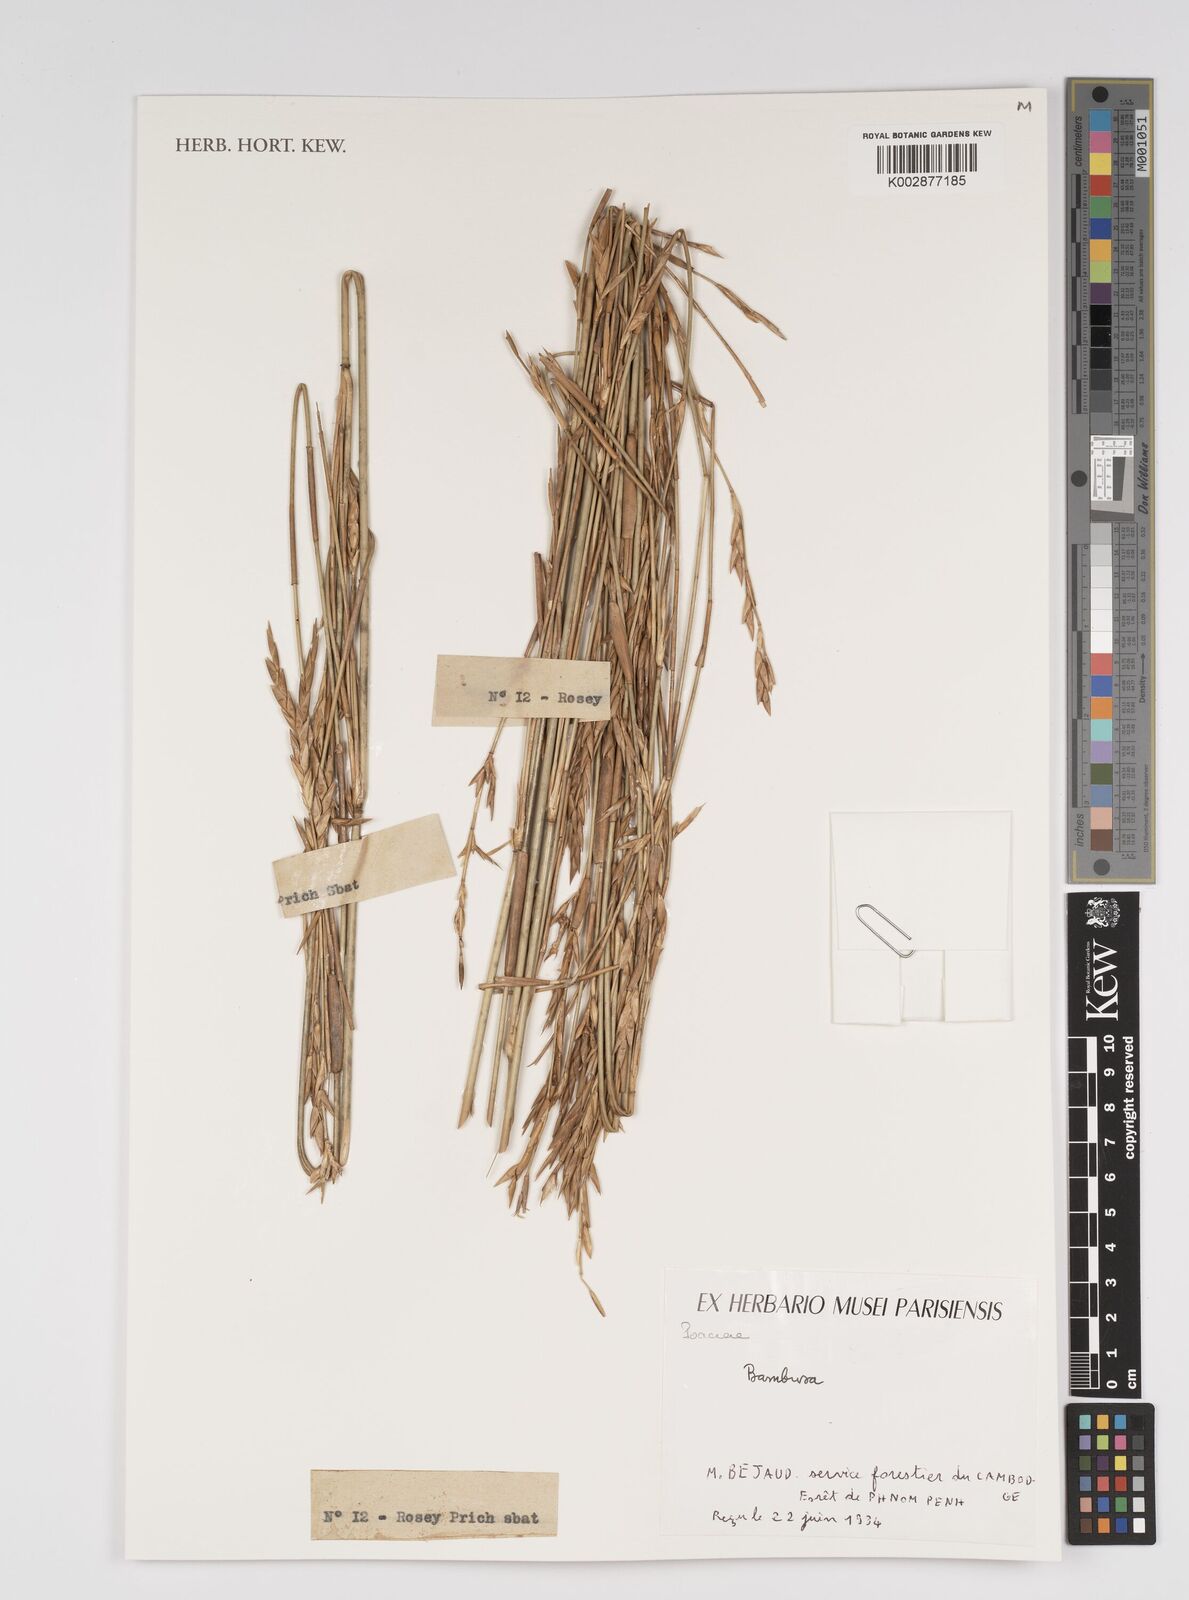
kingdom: Plantae
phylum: Tracheophyta
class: Liliopsida
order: Poales
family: Poaceae
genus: Bambusa
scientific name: Bambusa
